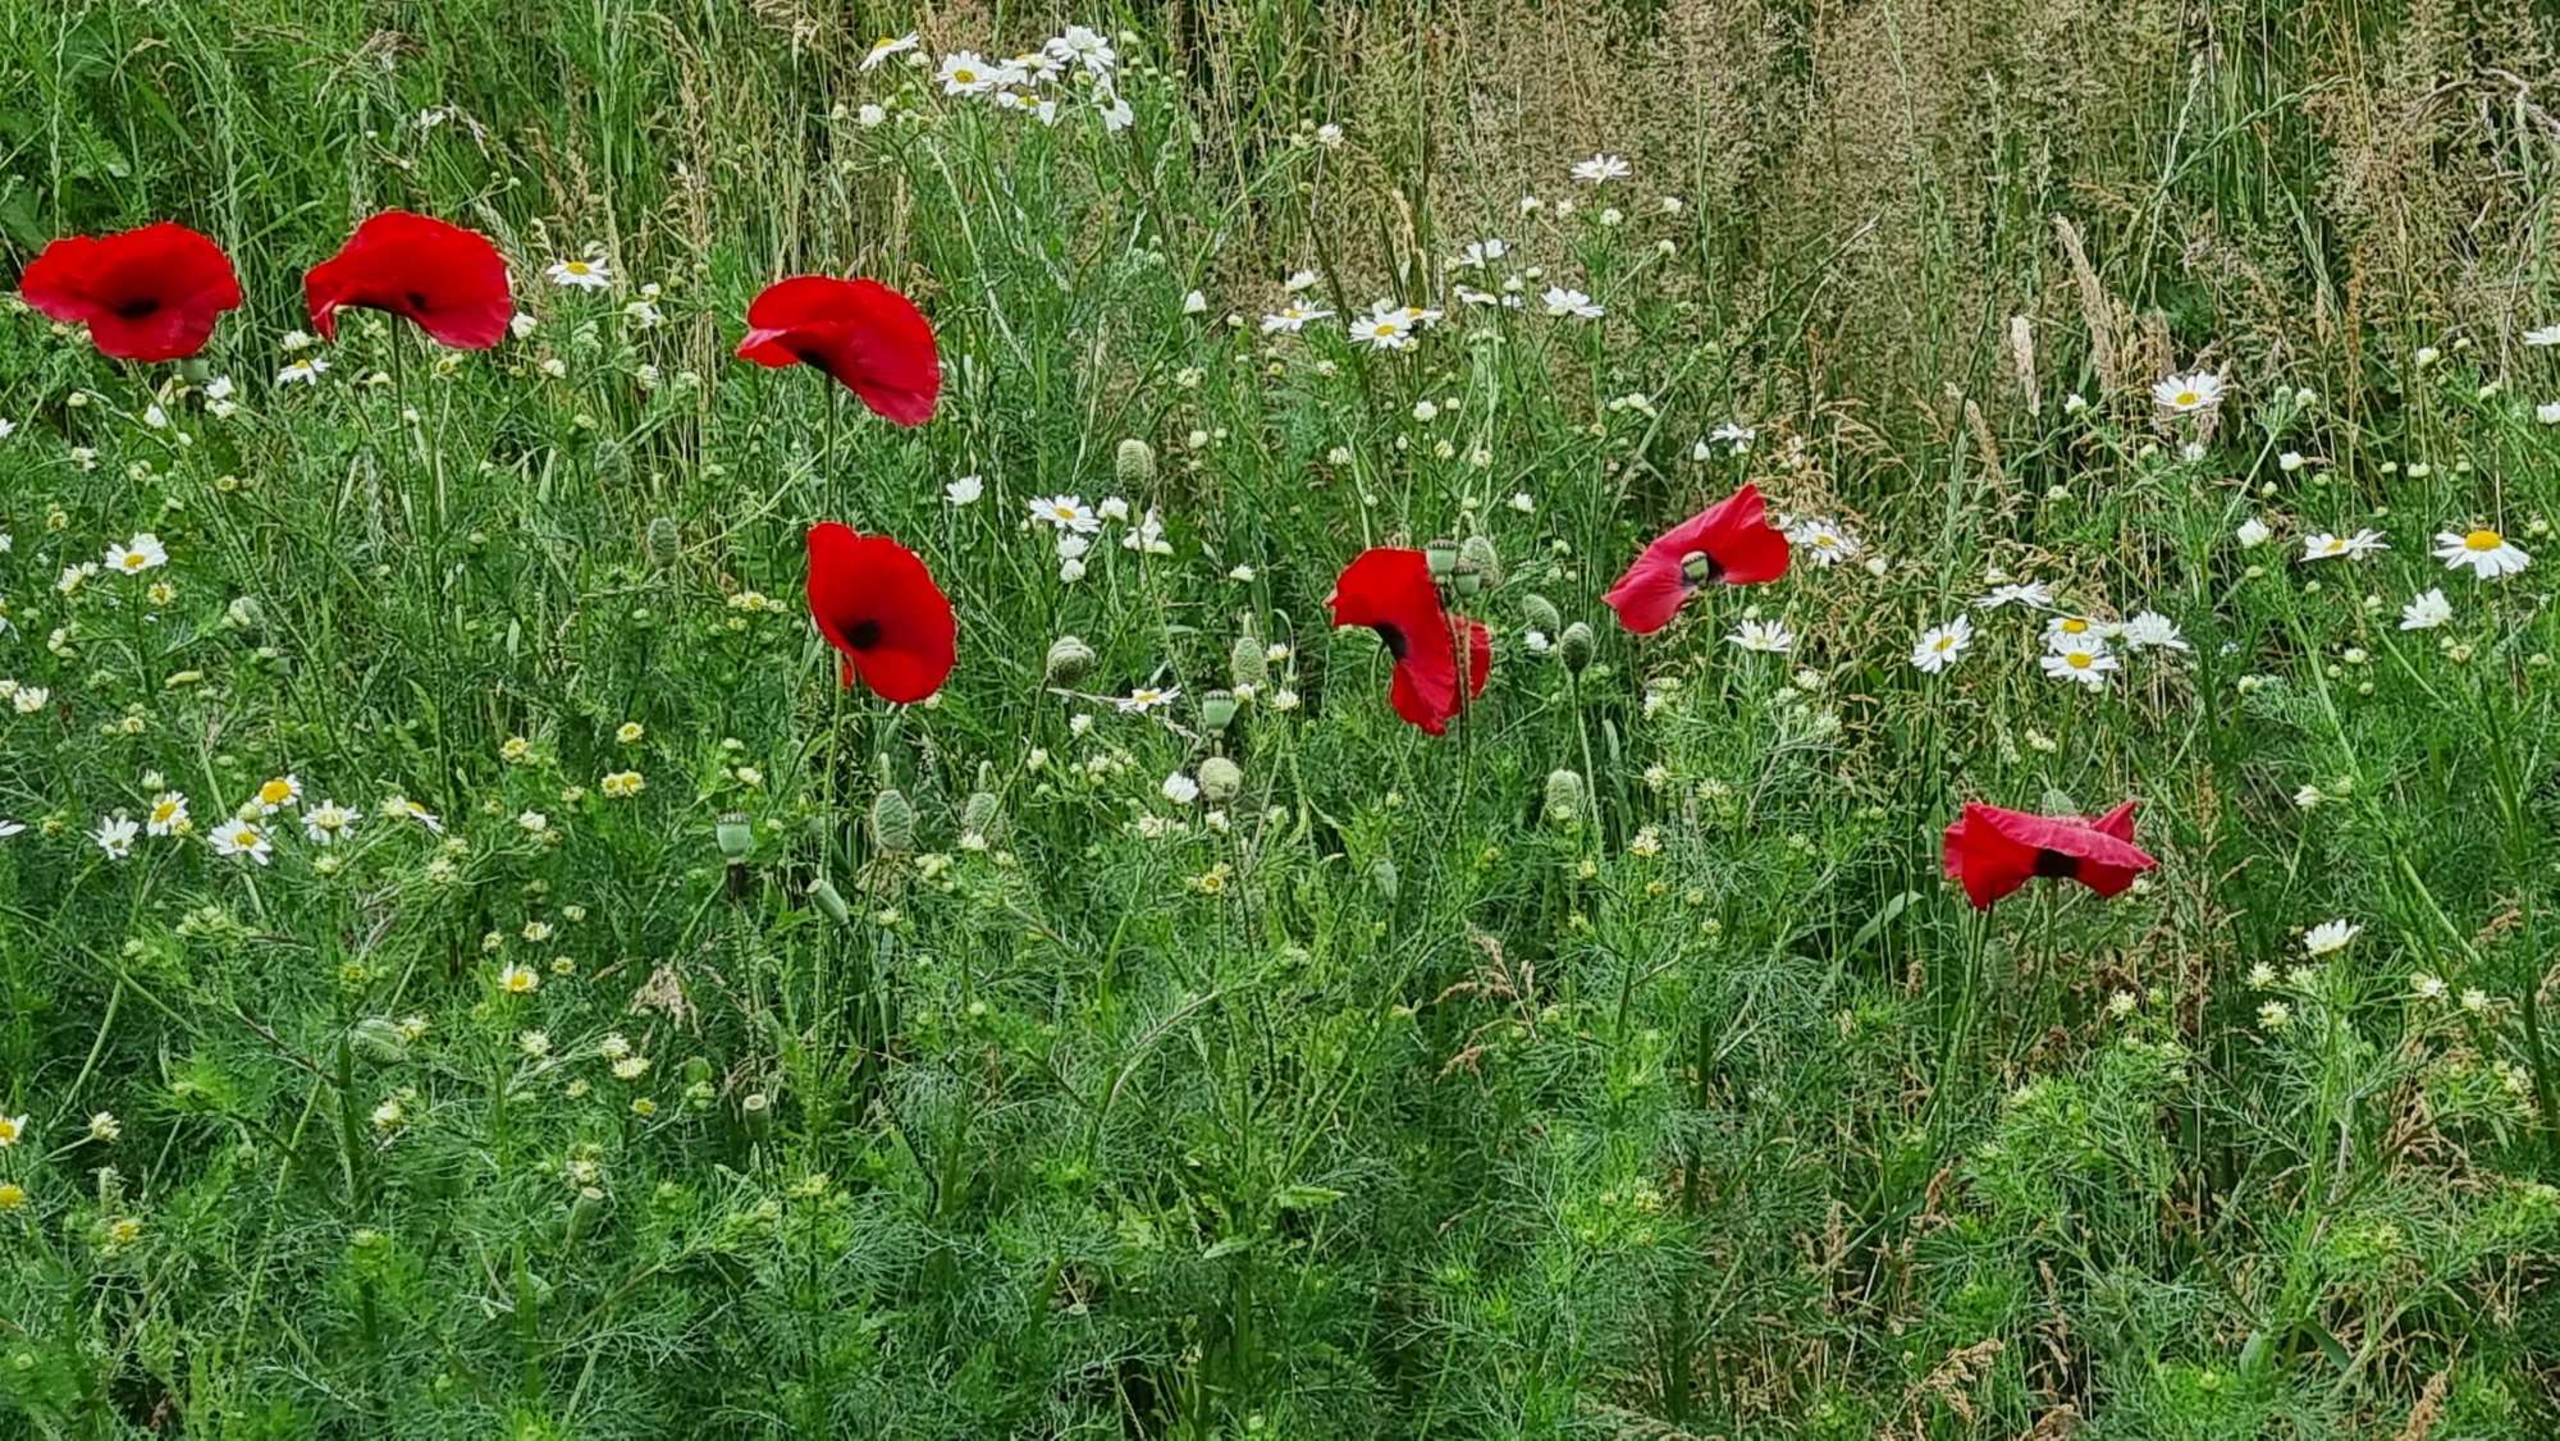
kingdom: Plantae
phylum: Tracheophyta
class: Magnoliopsida
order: Ranunculales
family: Papaveraceae
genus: Papaver
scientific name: Papaver rhoeas
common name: Korn-valmue
